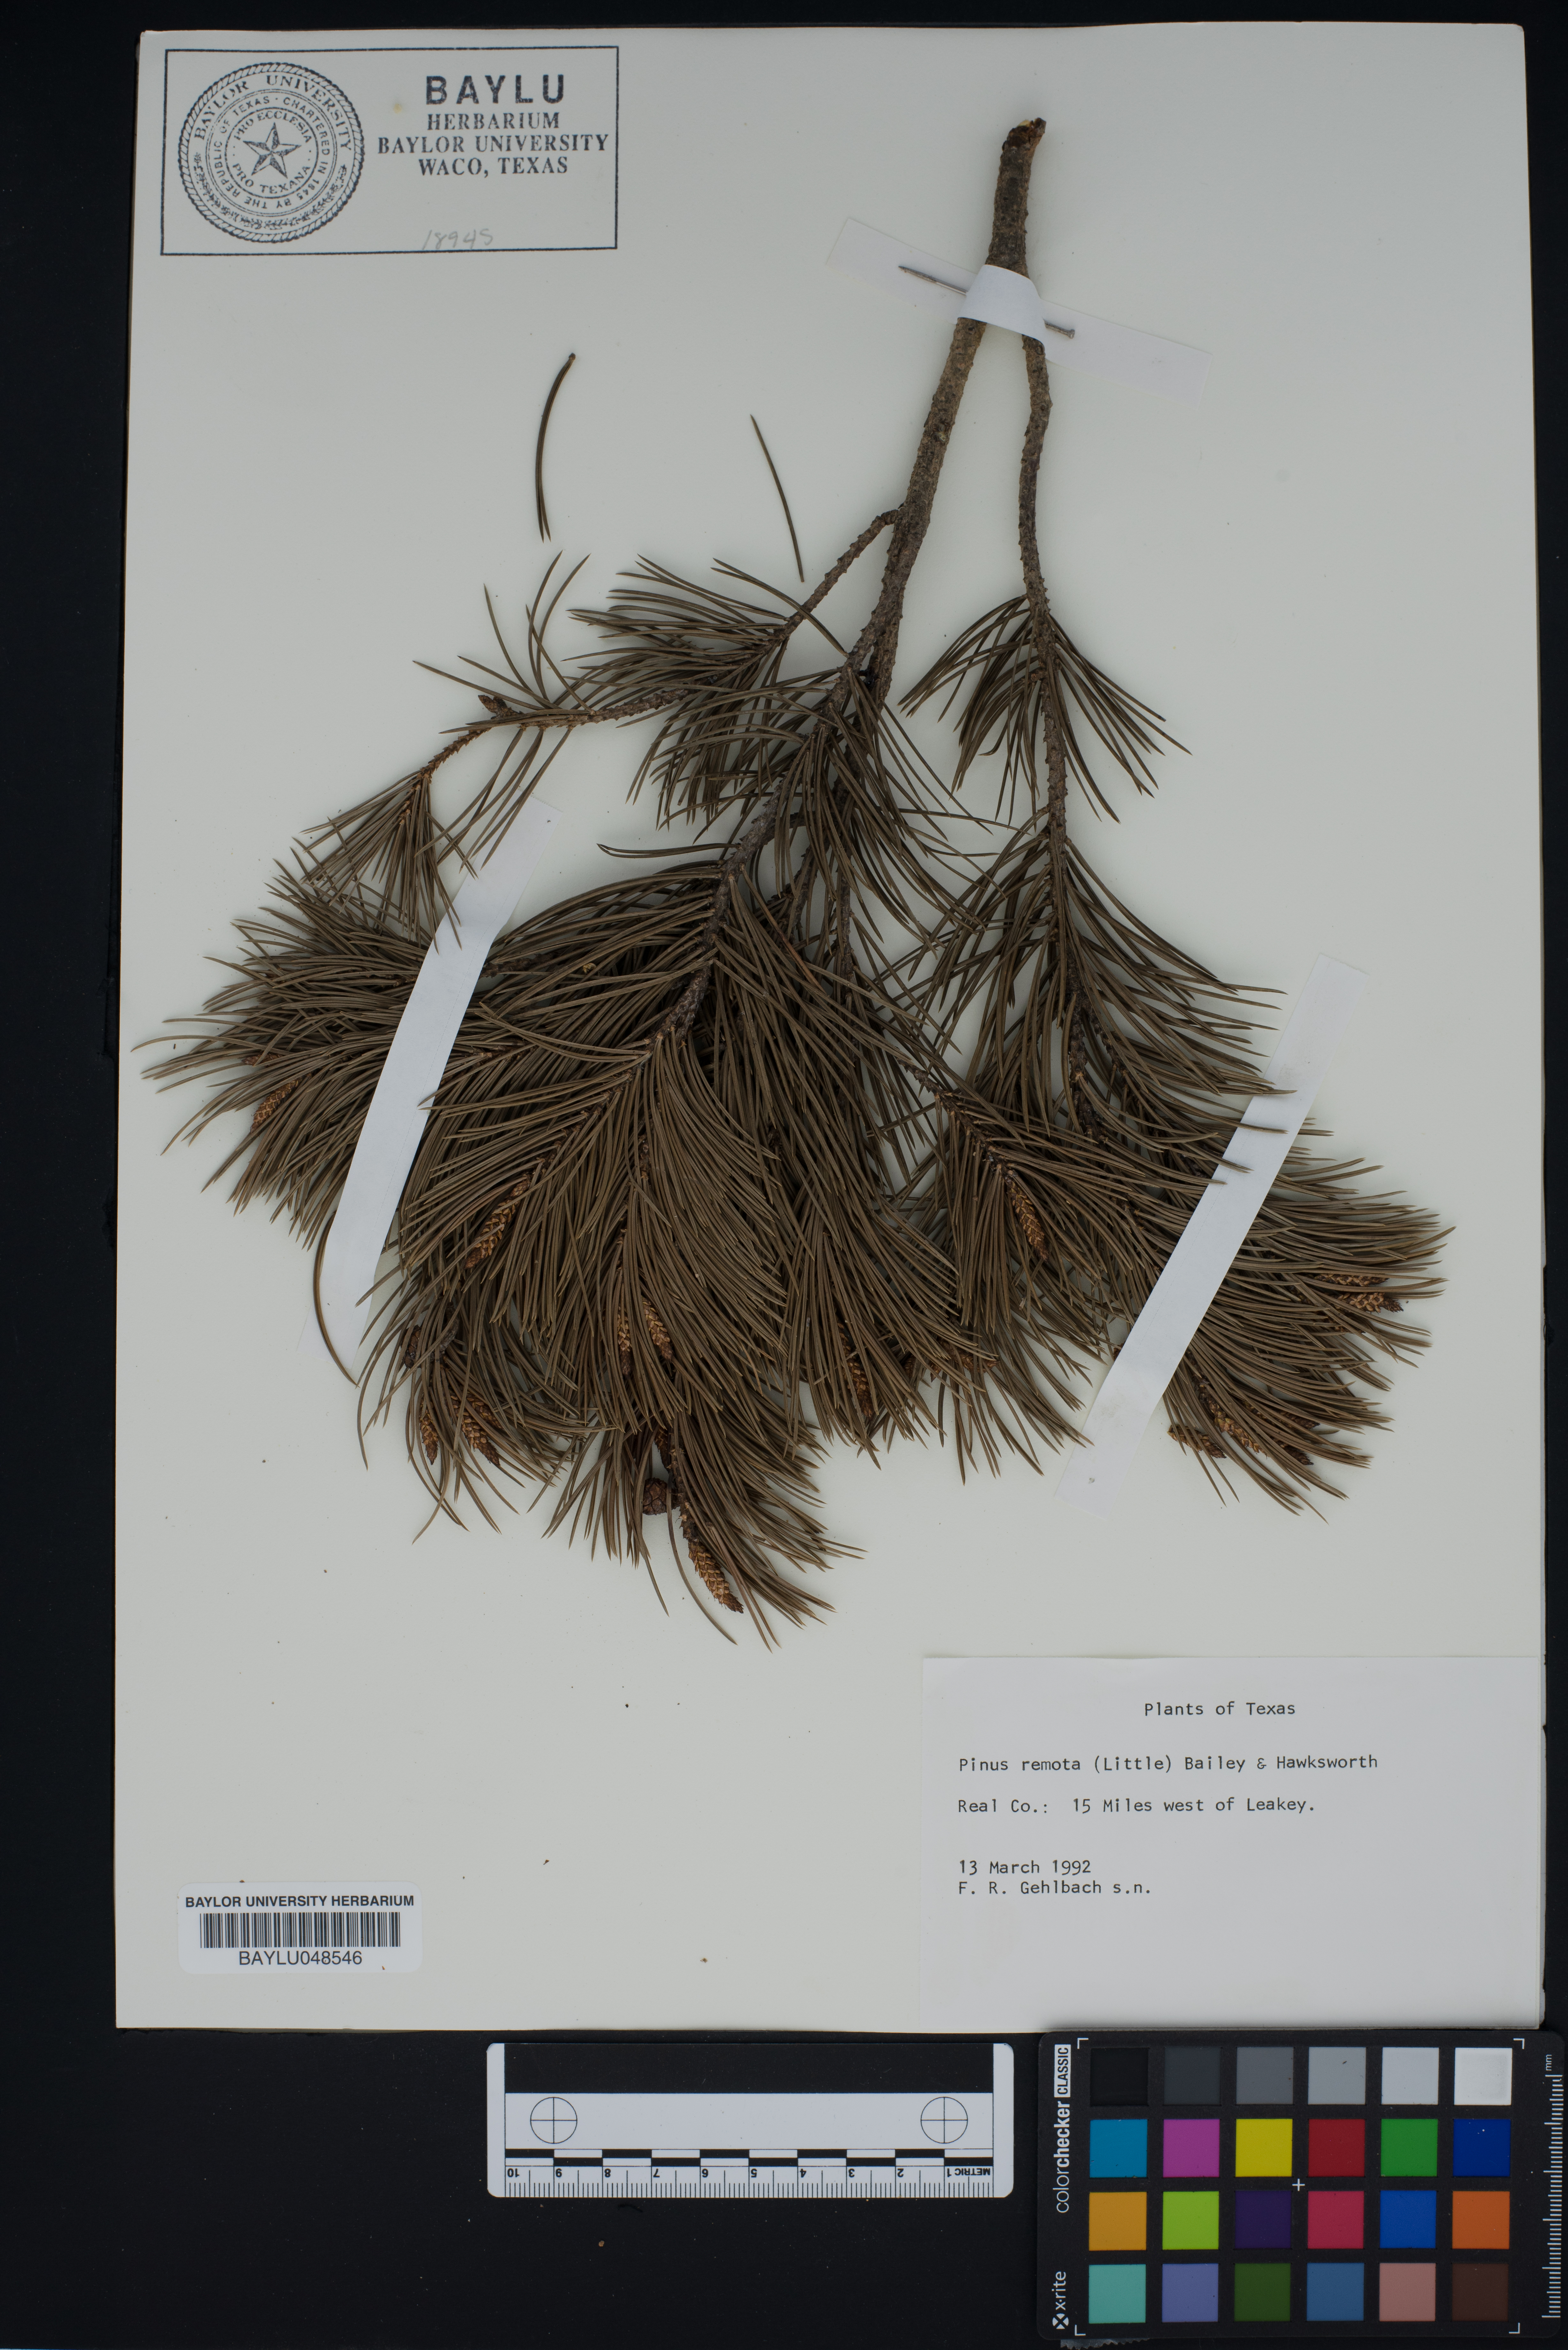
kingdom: Plantae
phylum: Tracheophyta
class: Pinopsida
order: Pinales
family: Pinaceae
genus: Pinus
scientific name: Pinus remota
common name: Nut pine
